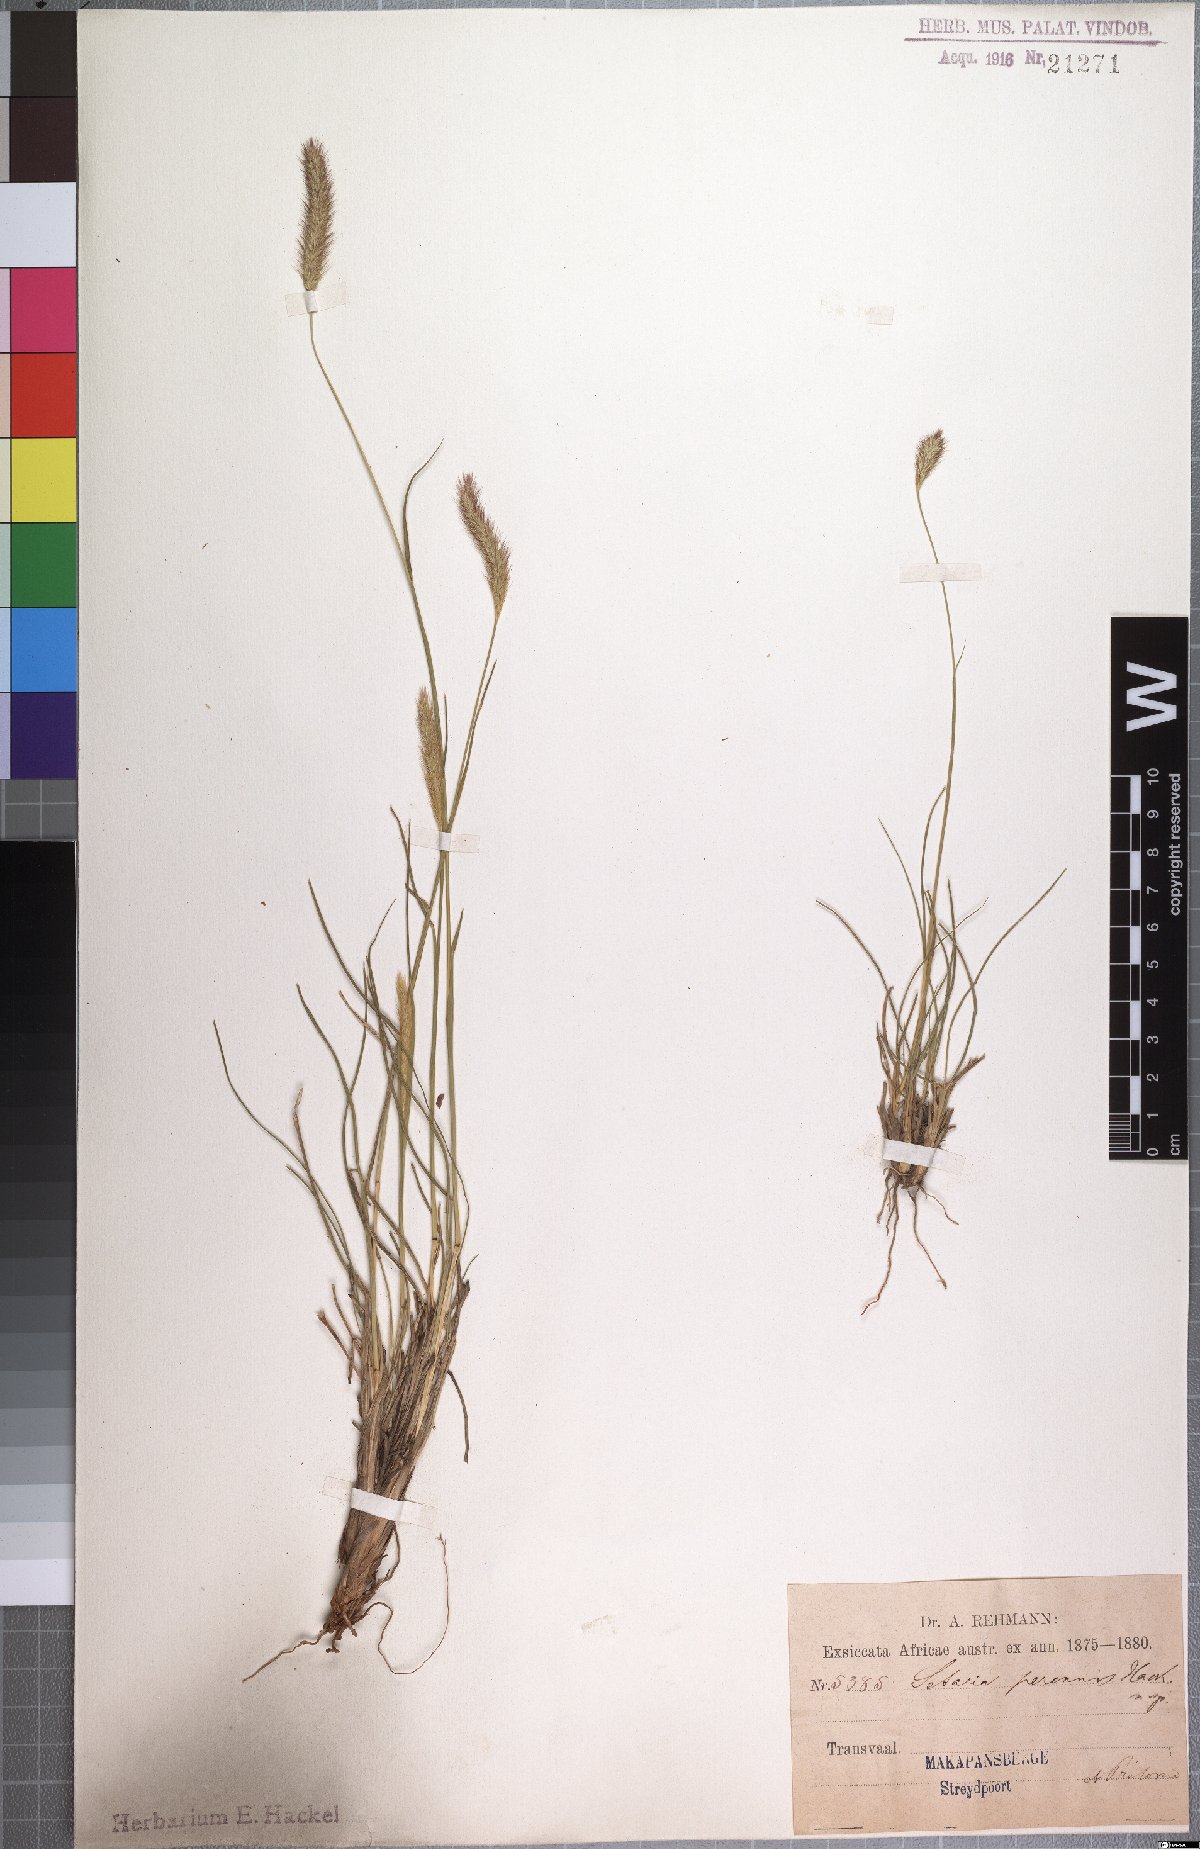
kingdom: Plantae
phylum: Tracheophyta
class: Liliopsida
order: Poales
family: Poaceae
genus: Setaria
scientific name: Setaria sphacelata
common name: African bristlegrass
